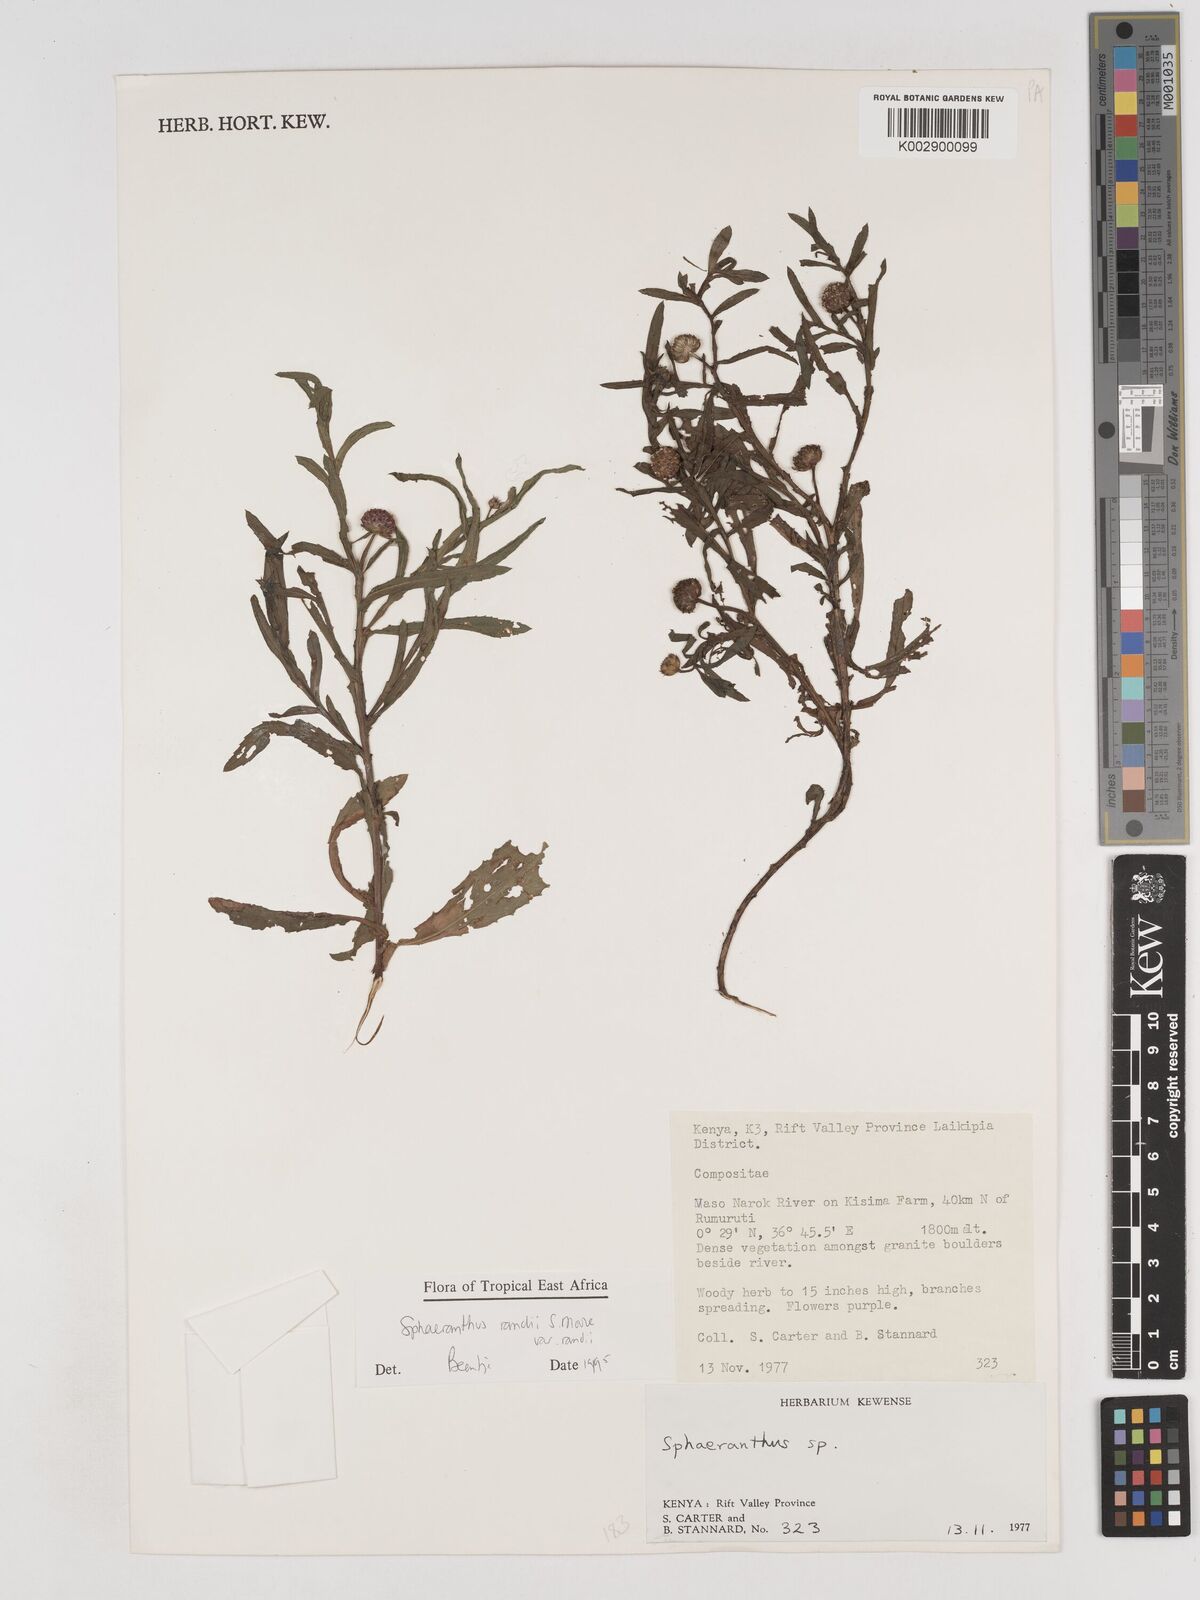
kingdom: Plantae
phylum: Tracheophyta
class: Magnoliopsida
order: Asterales
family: Asteraceae
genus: Sphaeranthus
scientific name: Sphaeranthus randii
